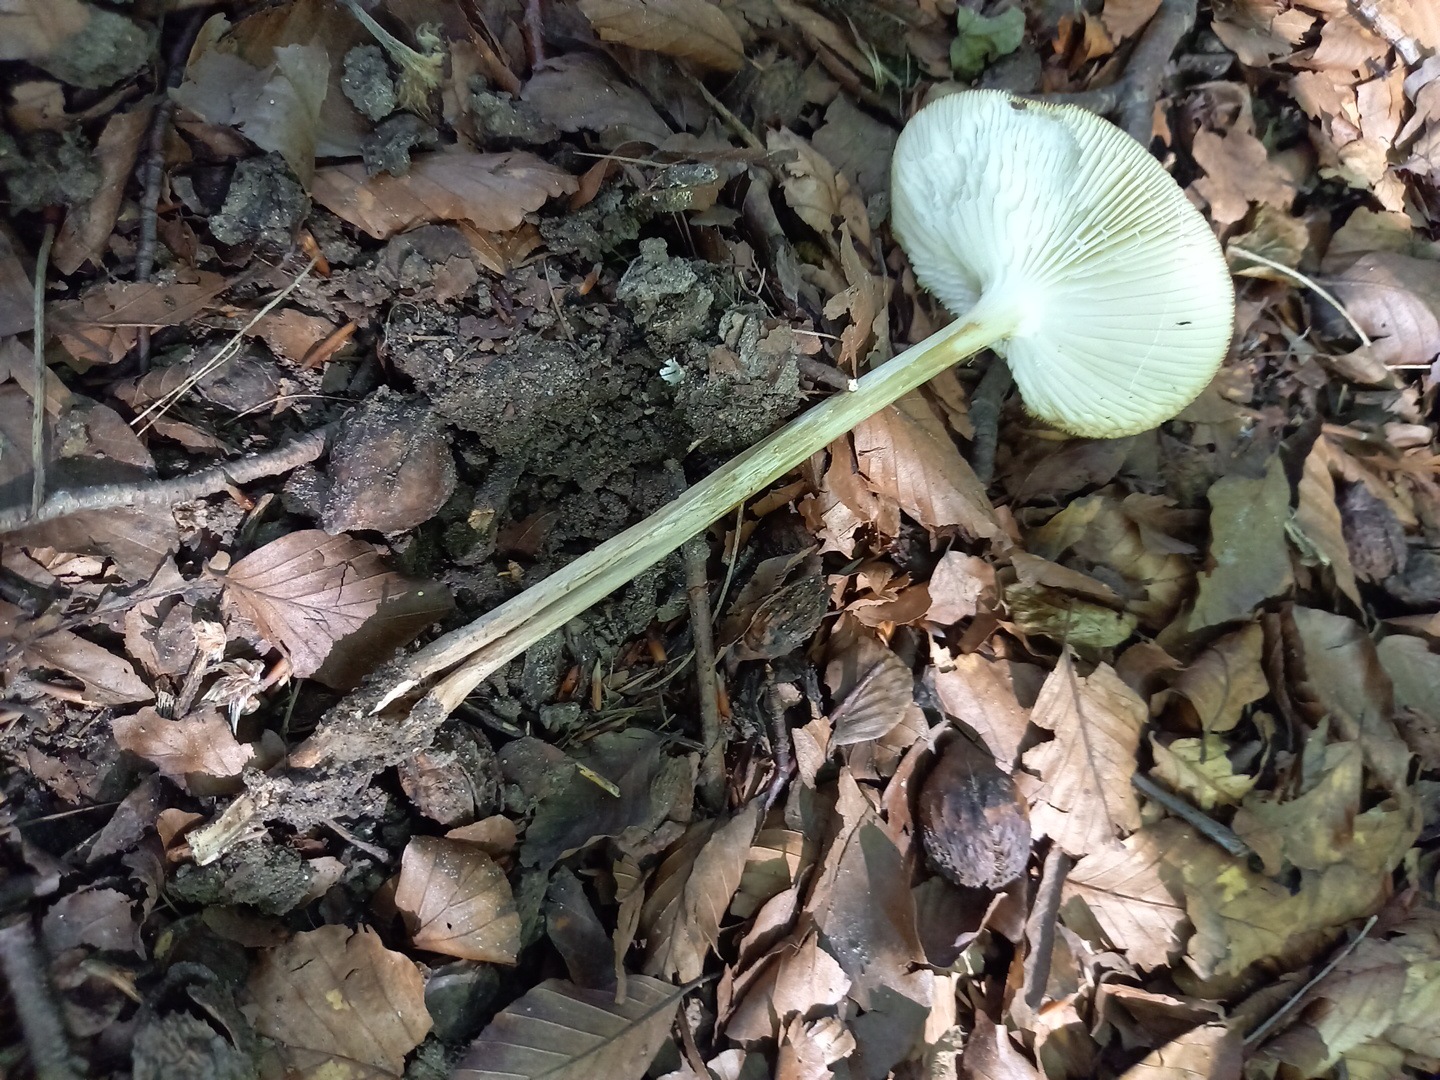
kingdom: Fungi
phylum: Basidiomycota
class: Agaricomycetes
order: Agaricales
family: Physalacriaceae
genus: Hymenopellis
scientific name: Hymenopellis radicata
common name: almindelig pælerodshat
